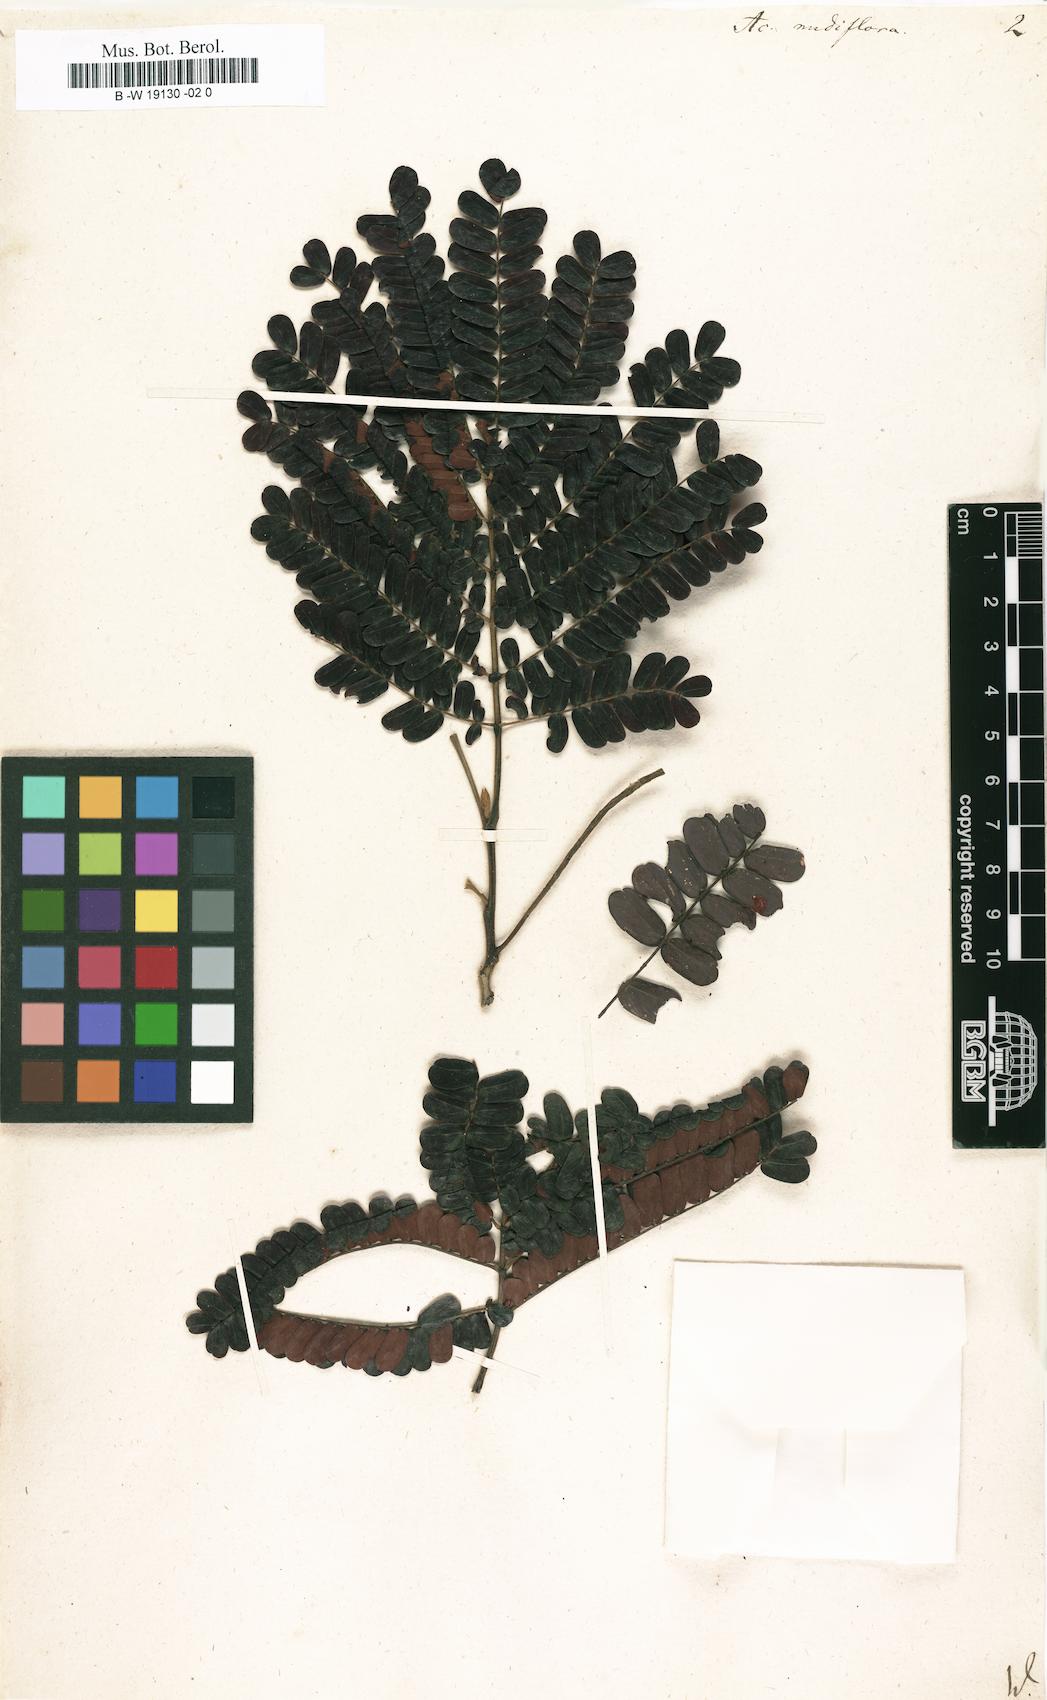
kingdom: Plantae
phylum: Tracheophyta
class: Magnoliopsida
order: Fabales
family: Fabaceae
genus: Parasenegalia
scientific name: Parasenegalia muricata
